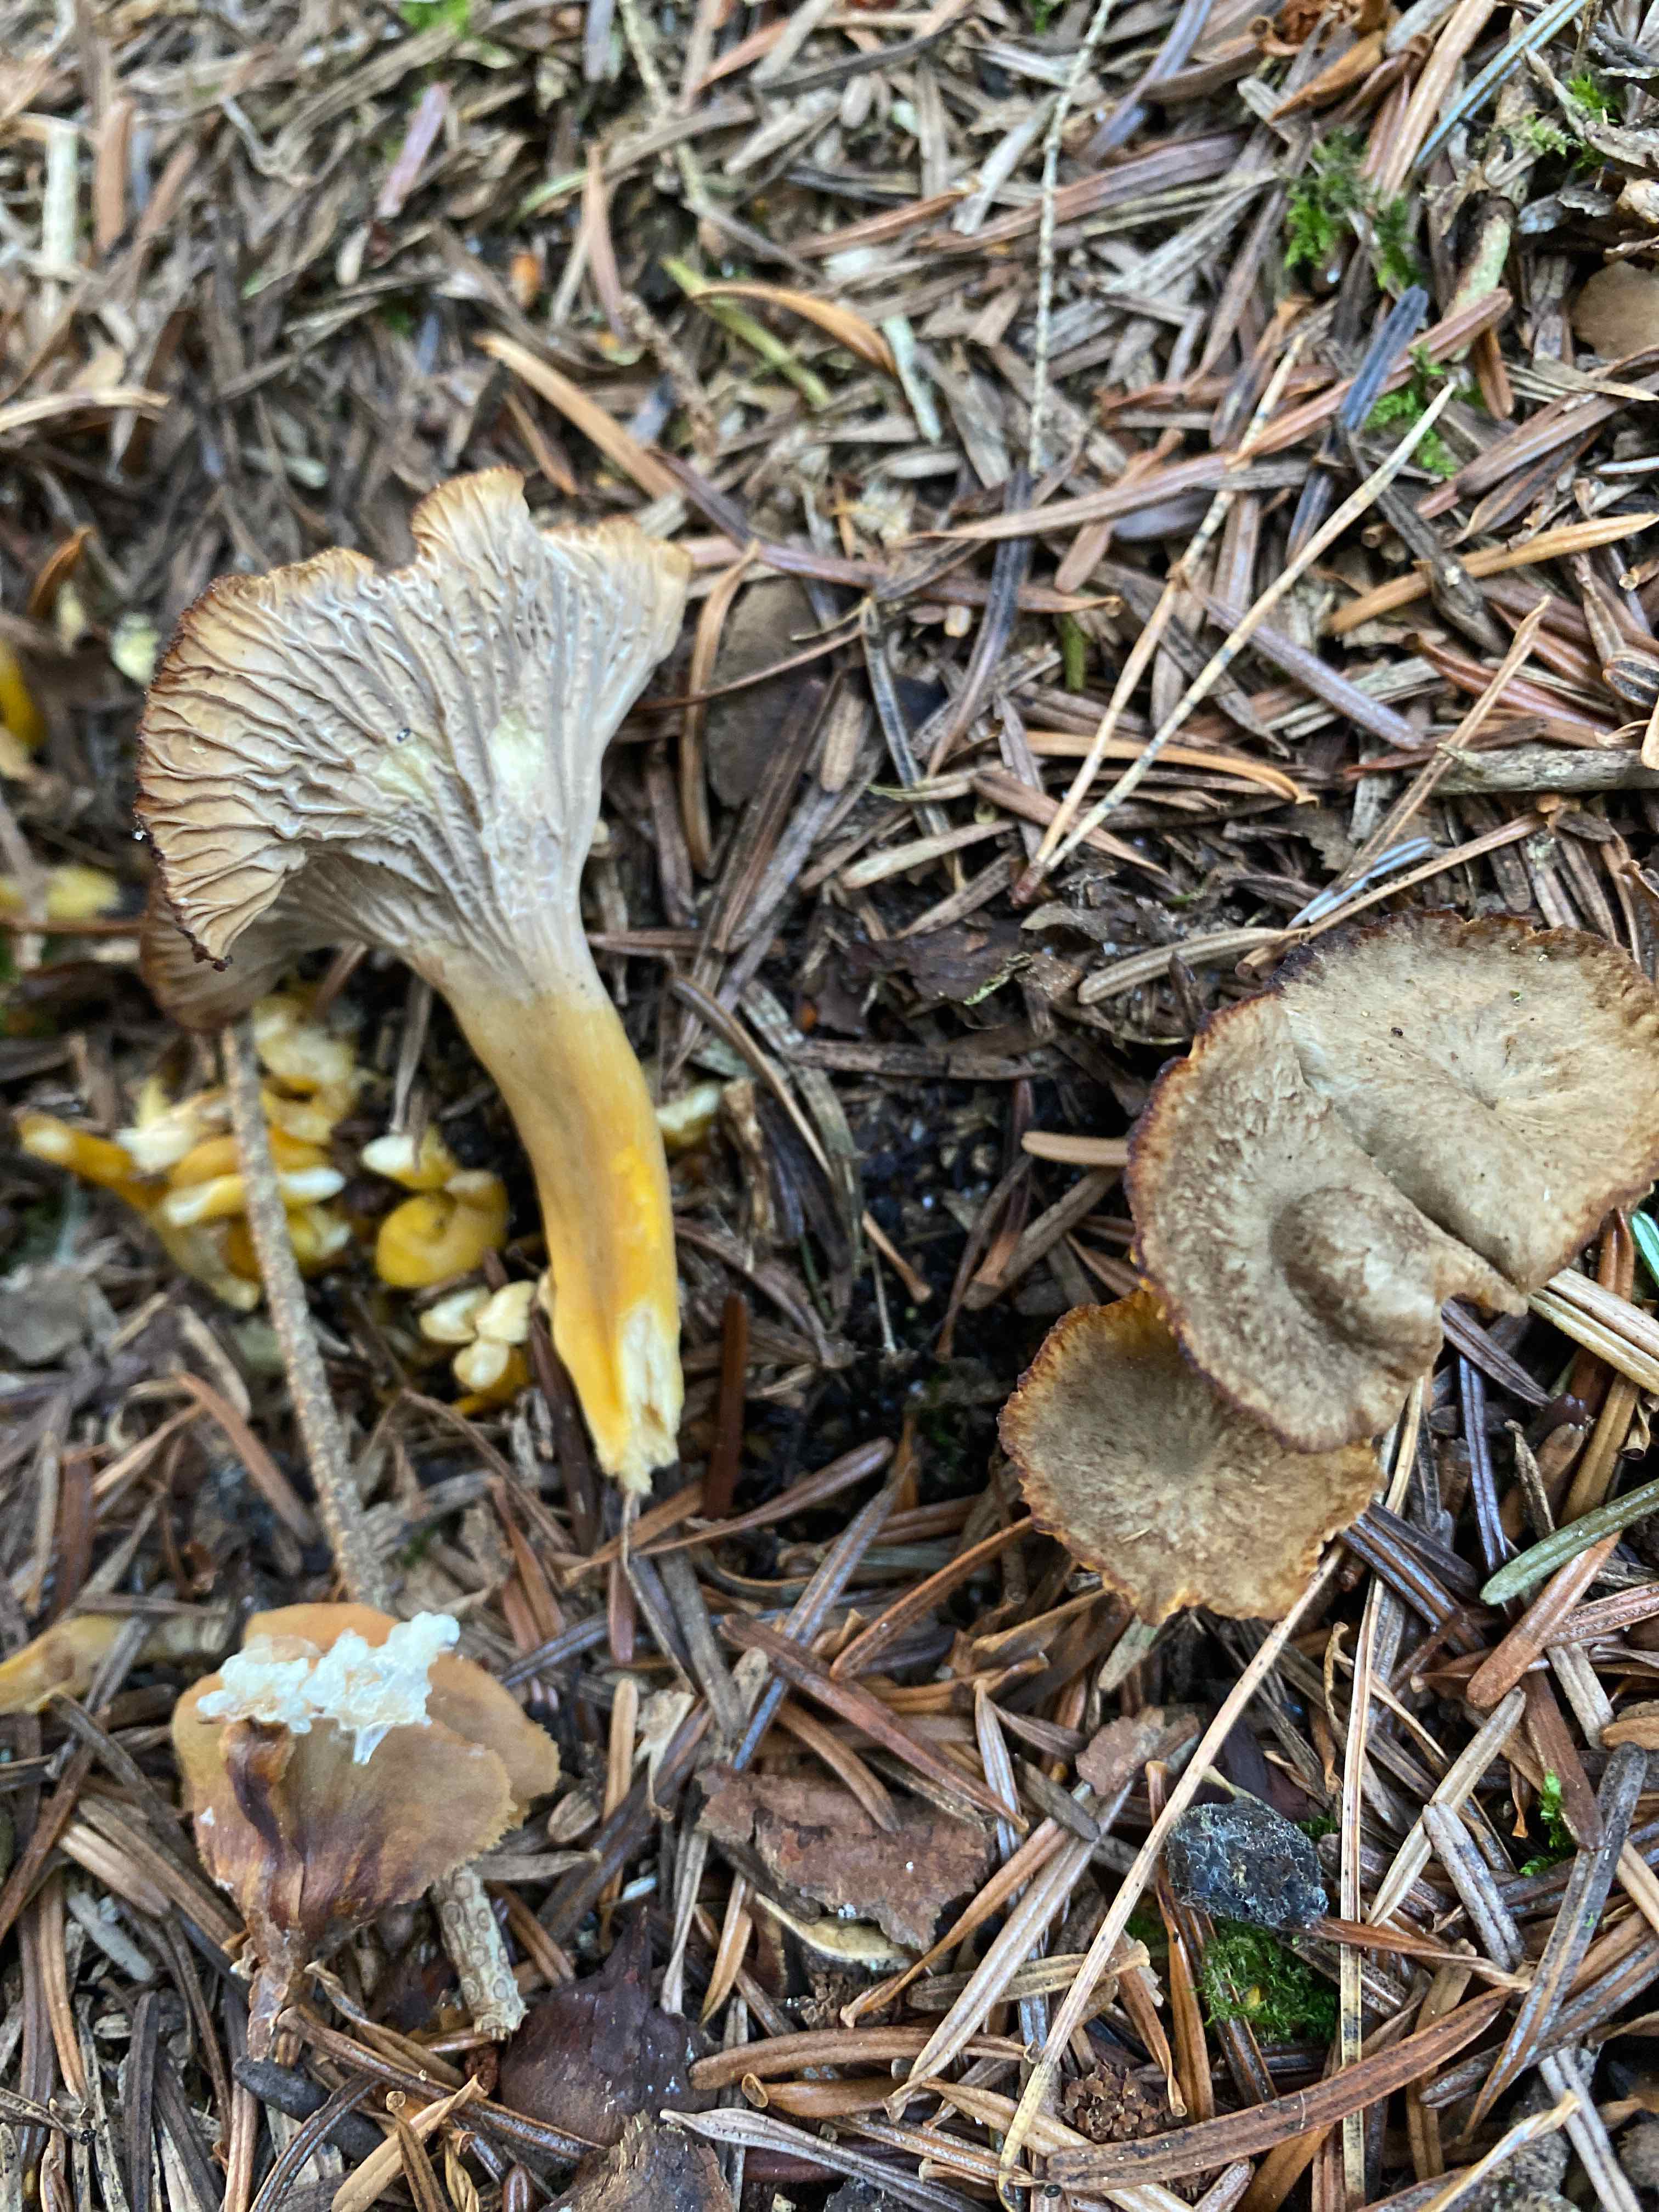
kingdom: Fungi
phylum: Basidiomycota
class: Agaricomycetes
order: Cantharellales
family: Hydnaceae
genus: Craterellus
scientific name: Craterellus tubaeformis
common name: tragt-kantarel
